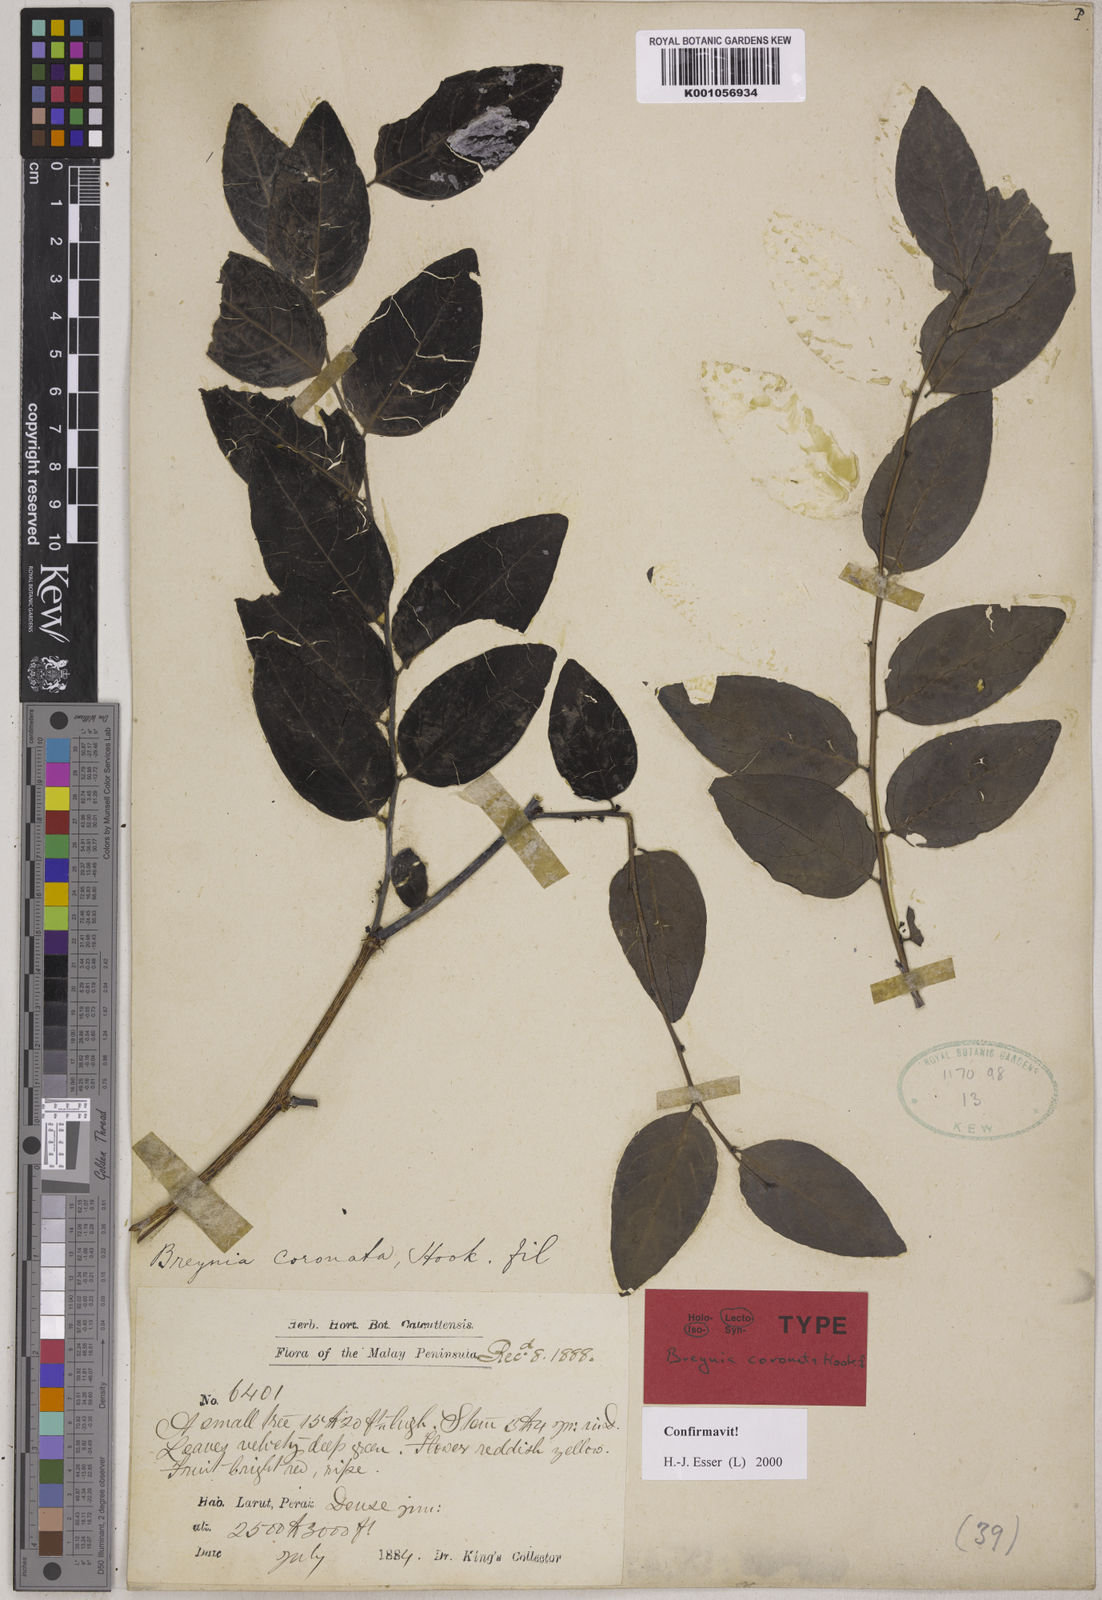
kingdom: Plantae
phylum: Tracheophyta
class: Magnoliopsida
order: Malpighiales
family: Phyllanthaceae
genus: Breynia
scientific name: Breynia coronata
